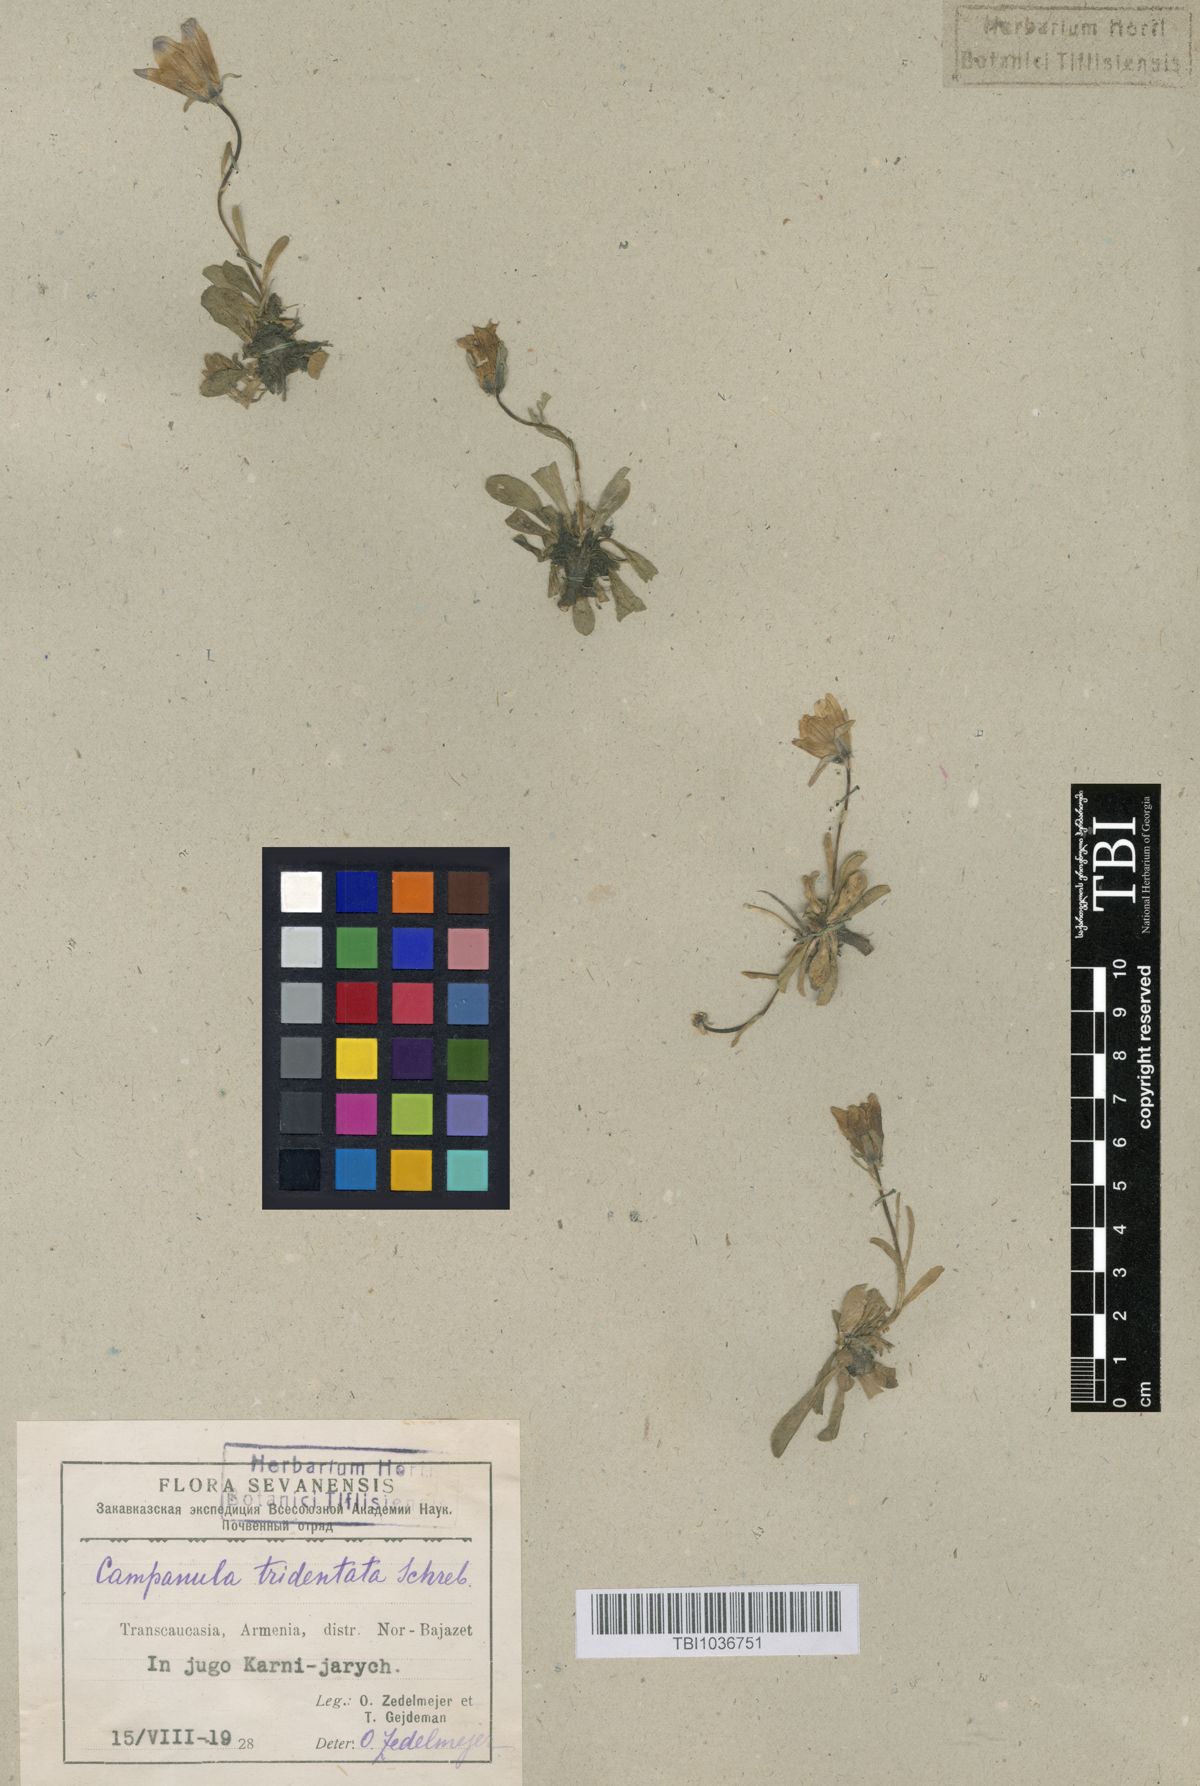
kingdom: Plantae
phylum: Tracheophyta
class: Magnoliopsida
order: Asterales
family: Campanulaceae
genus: Campanula
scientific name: Campanula tridentata
